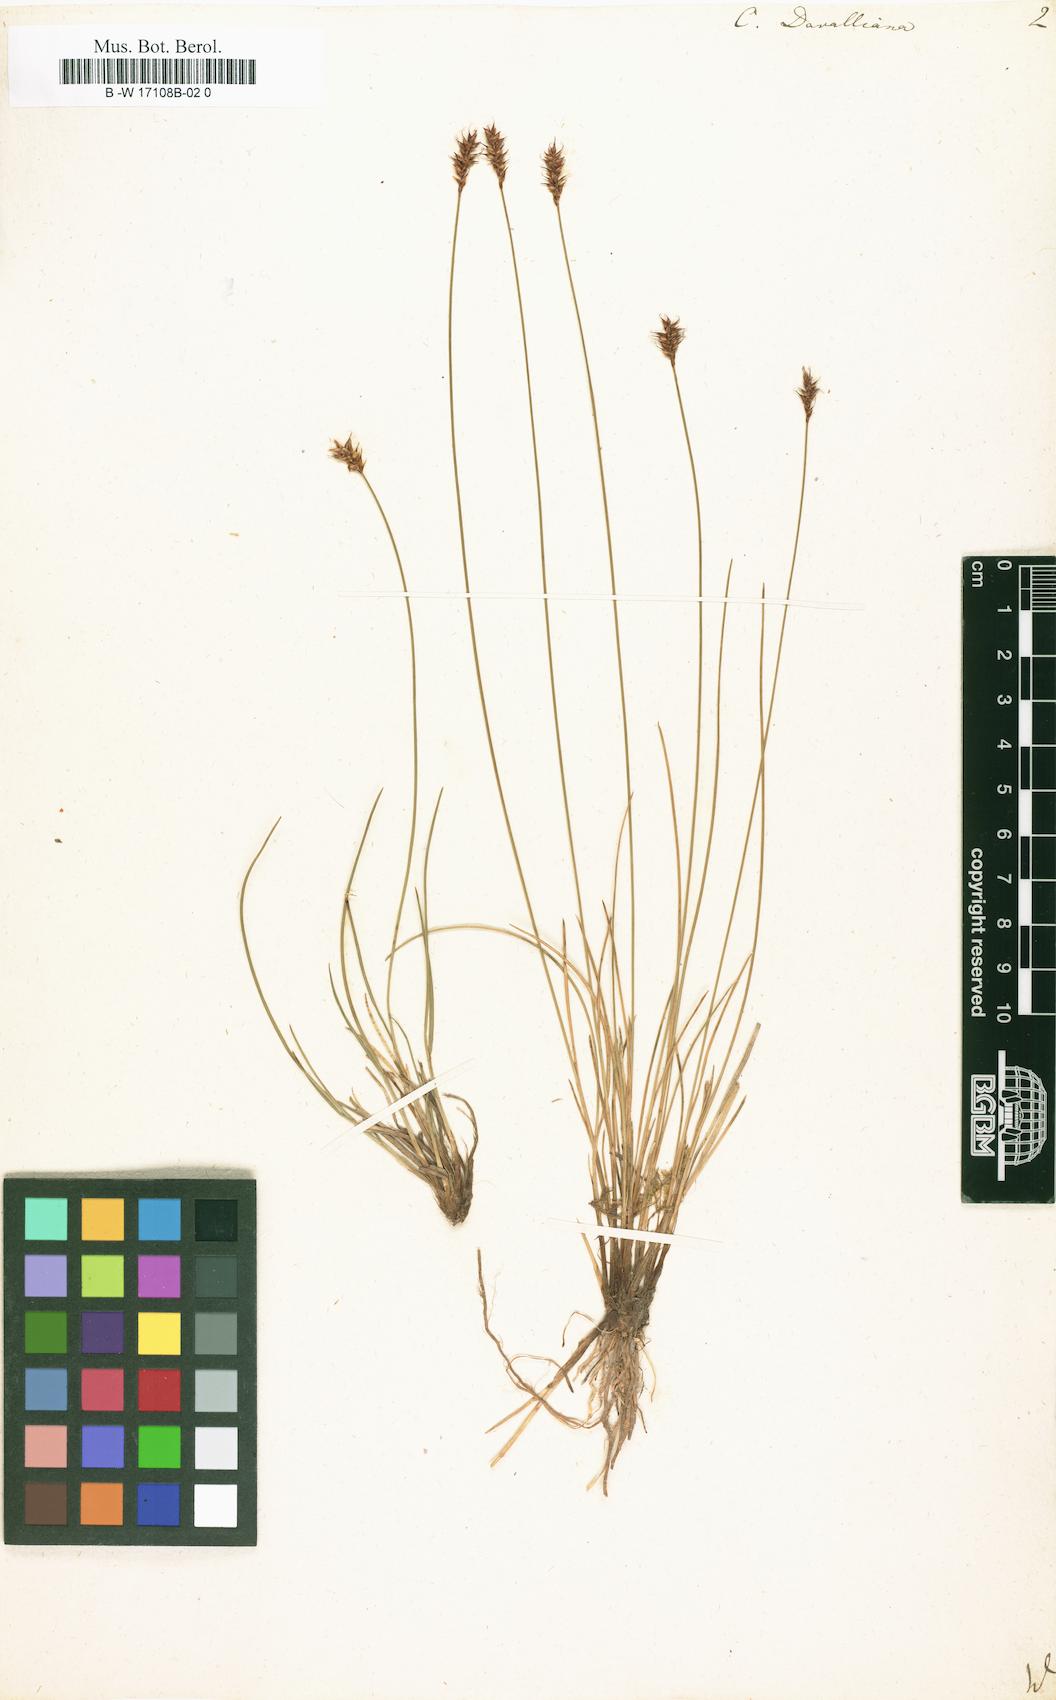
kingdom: Plantae
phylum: Tracheophyta
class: Liliopsida
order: Poales
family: Cyperaceae
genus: Carex
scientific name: Carex davalliana
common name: Davall's sedge
